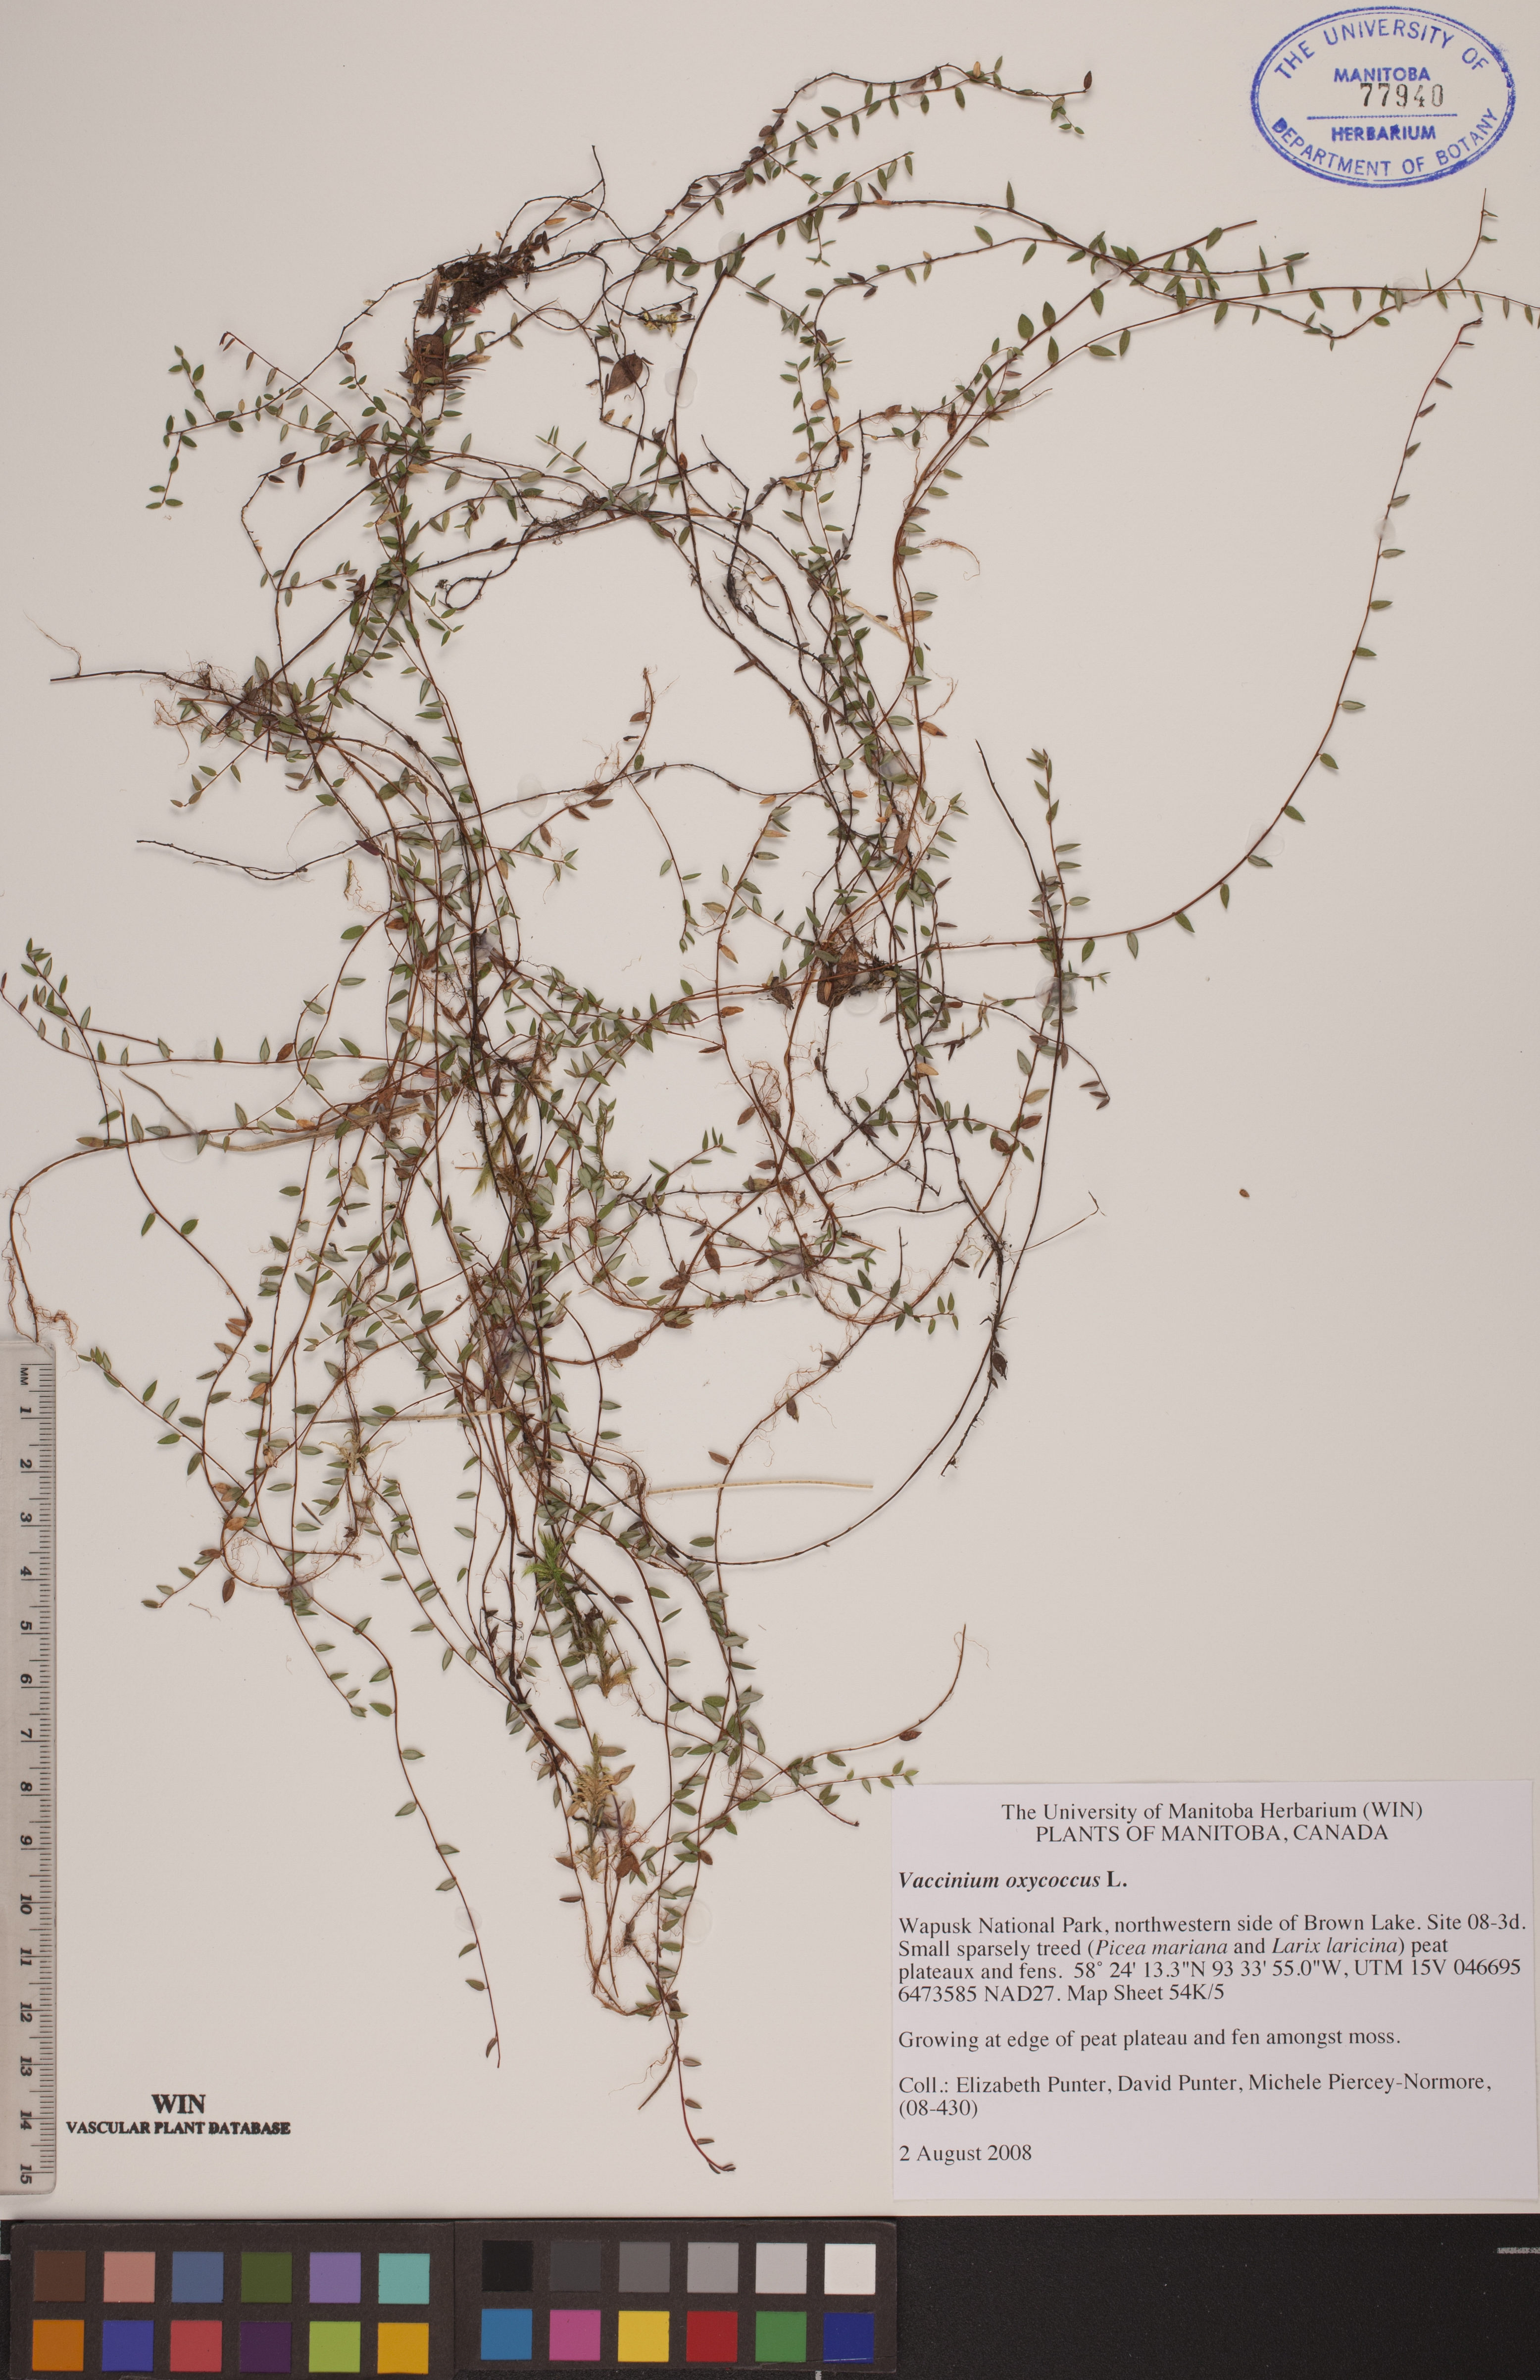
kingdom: Plantae
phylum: Tracheophyta
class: Magnoliopsida
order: Ericales
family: Ericaceae
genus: Vaccinium
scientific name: Vaccinium oxycoccos
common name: Cranberry
